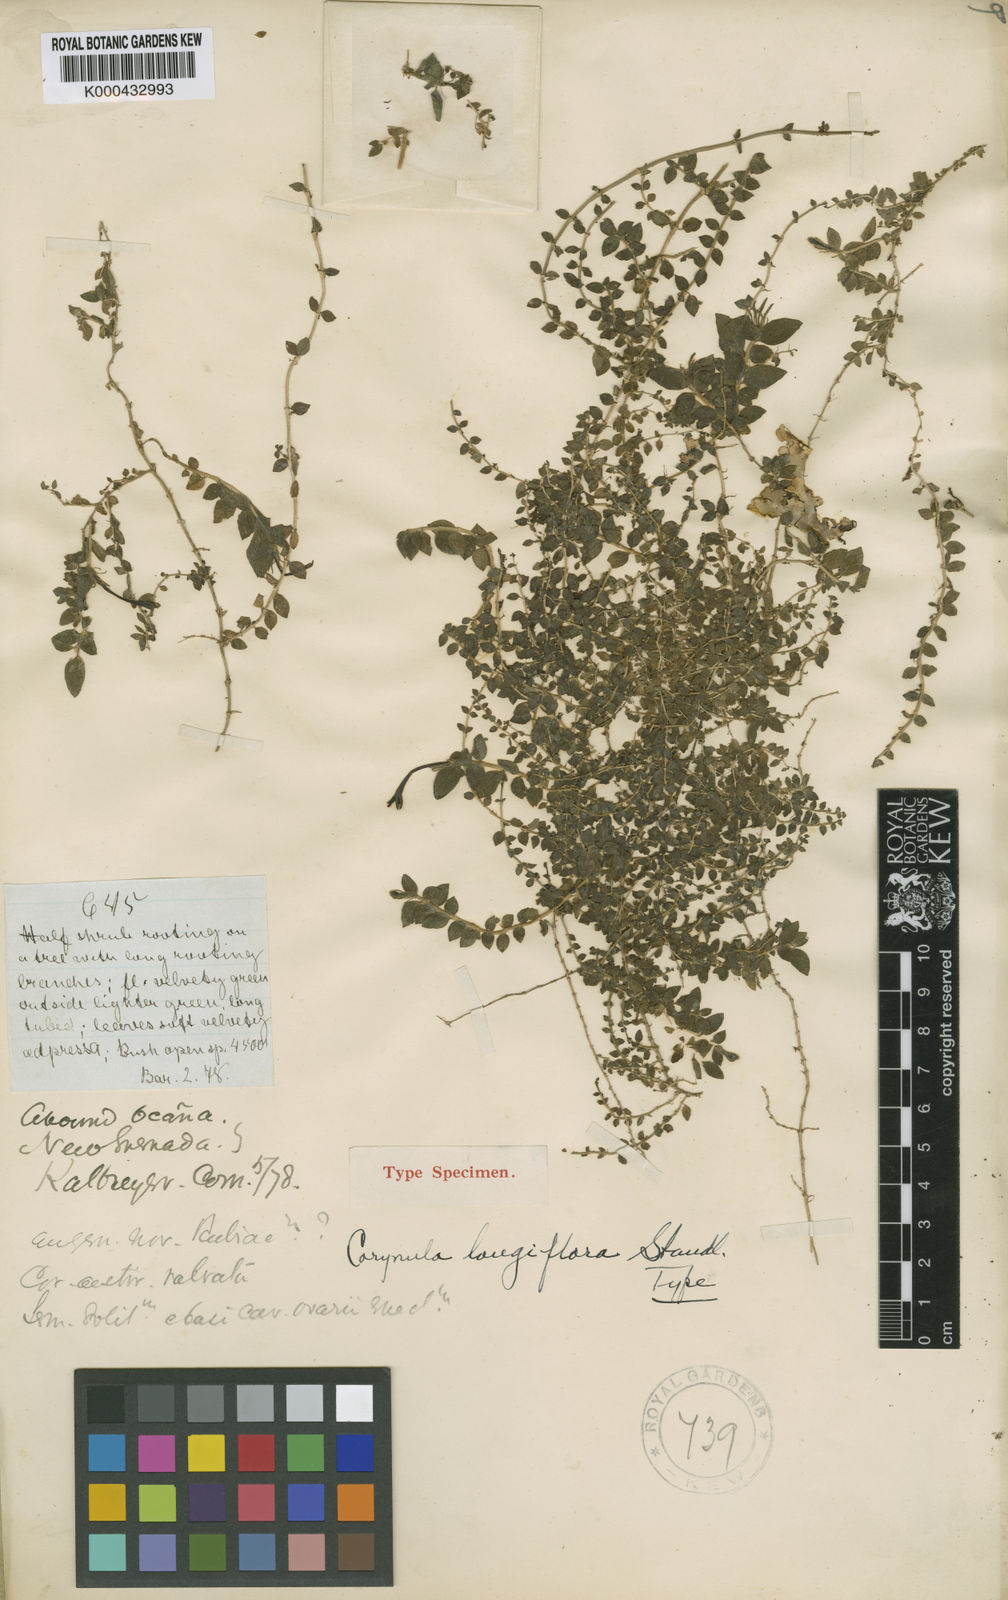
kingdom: Plantae
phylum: Tracheophyta
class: Magnoliopsida
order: Gentianales
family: Rubiaceae
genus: Leptostigma
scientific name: Leptostigma longiflorum
